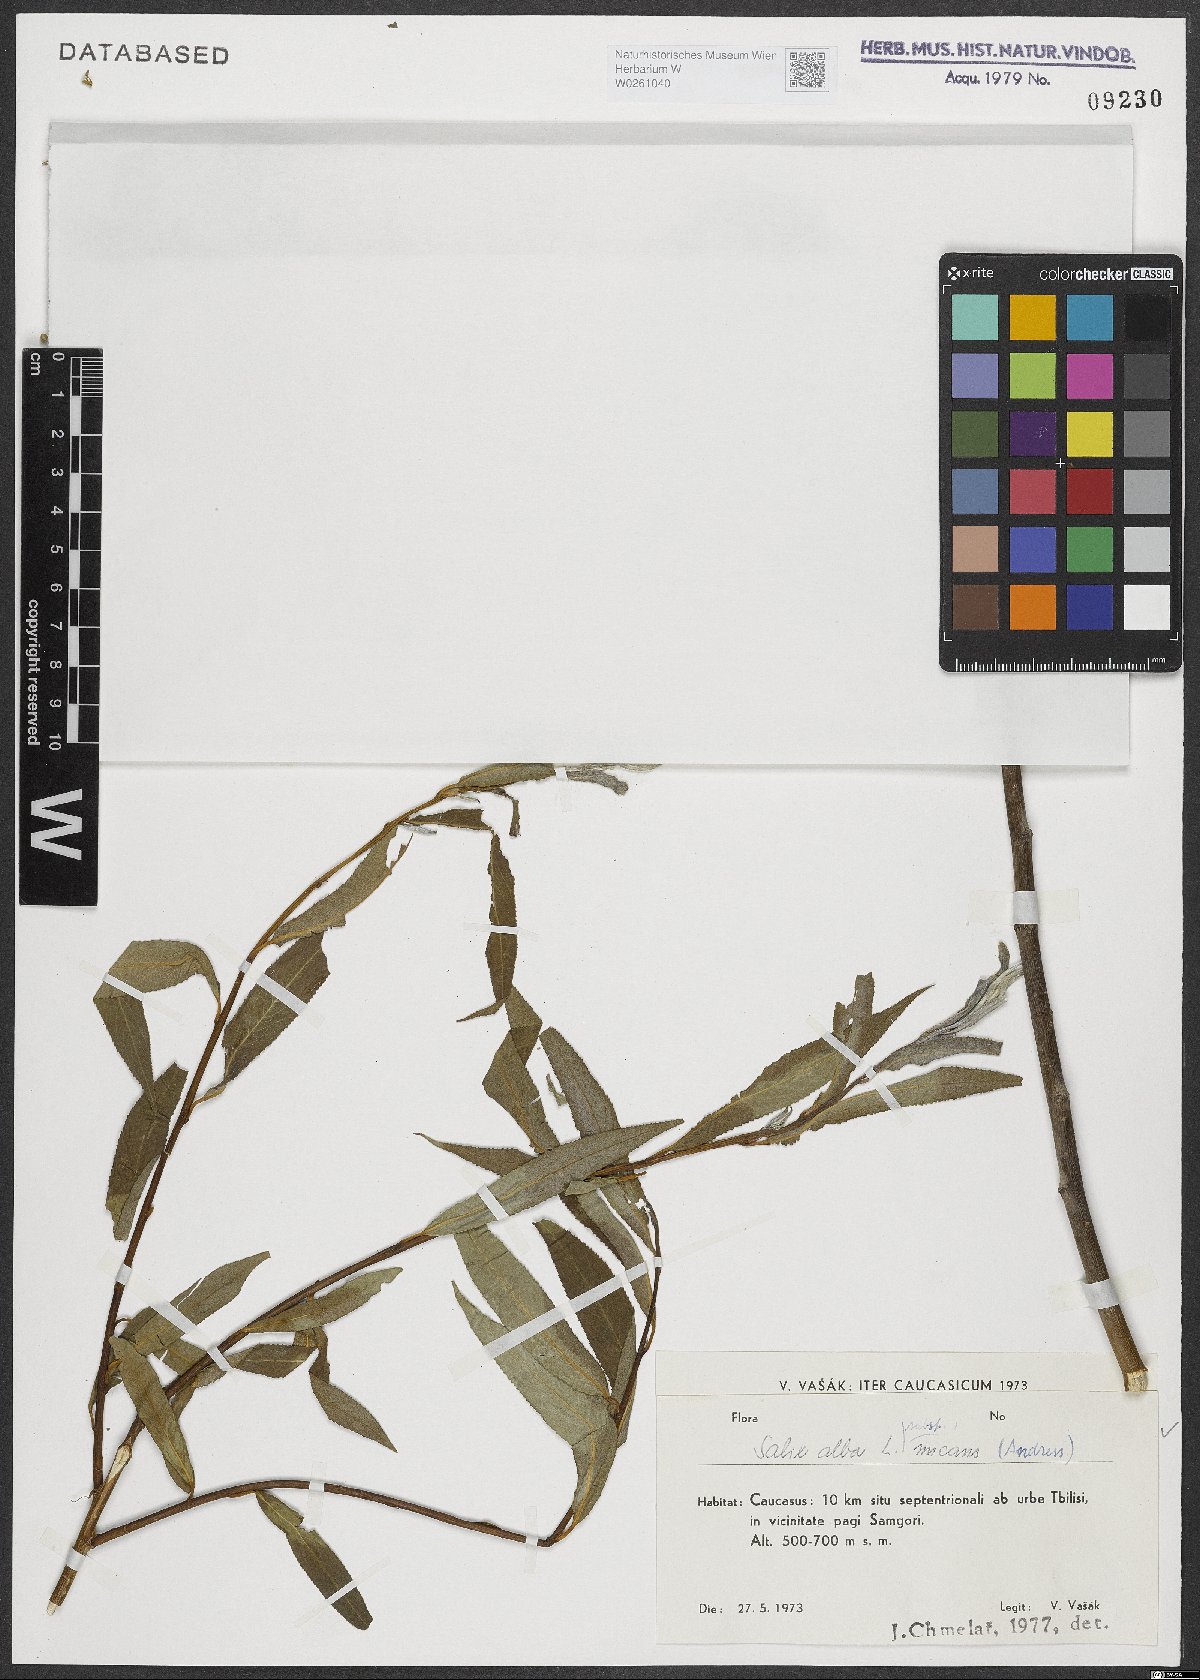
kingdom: Plantae
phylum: Tracheophyta
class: Magnoliopsida
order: Malpighiales
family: Salicaceae
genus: Salix
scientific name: Salix alba
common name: White willow
